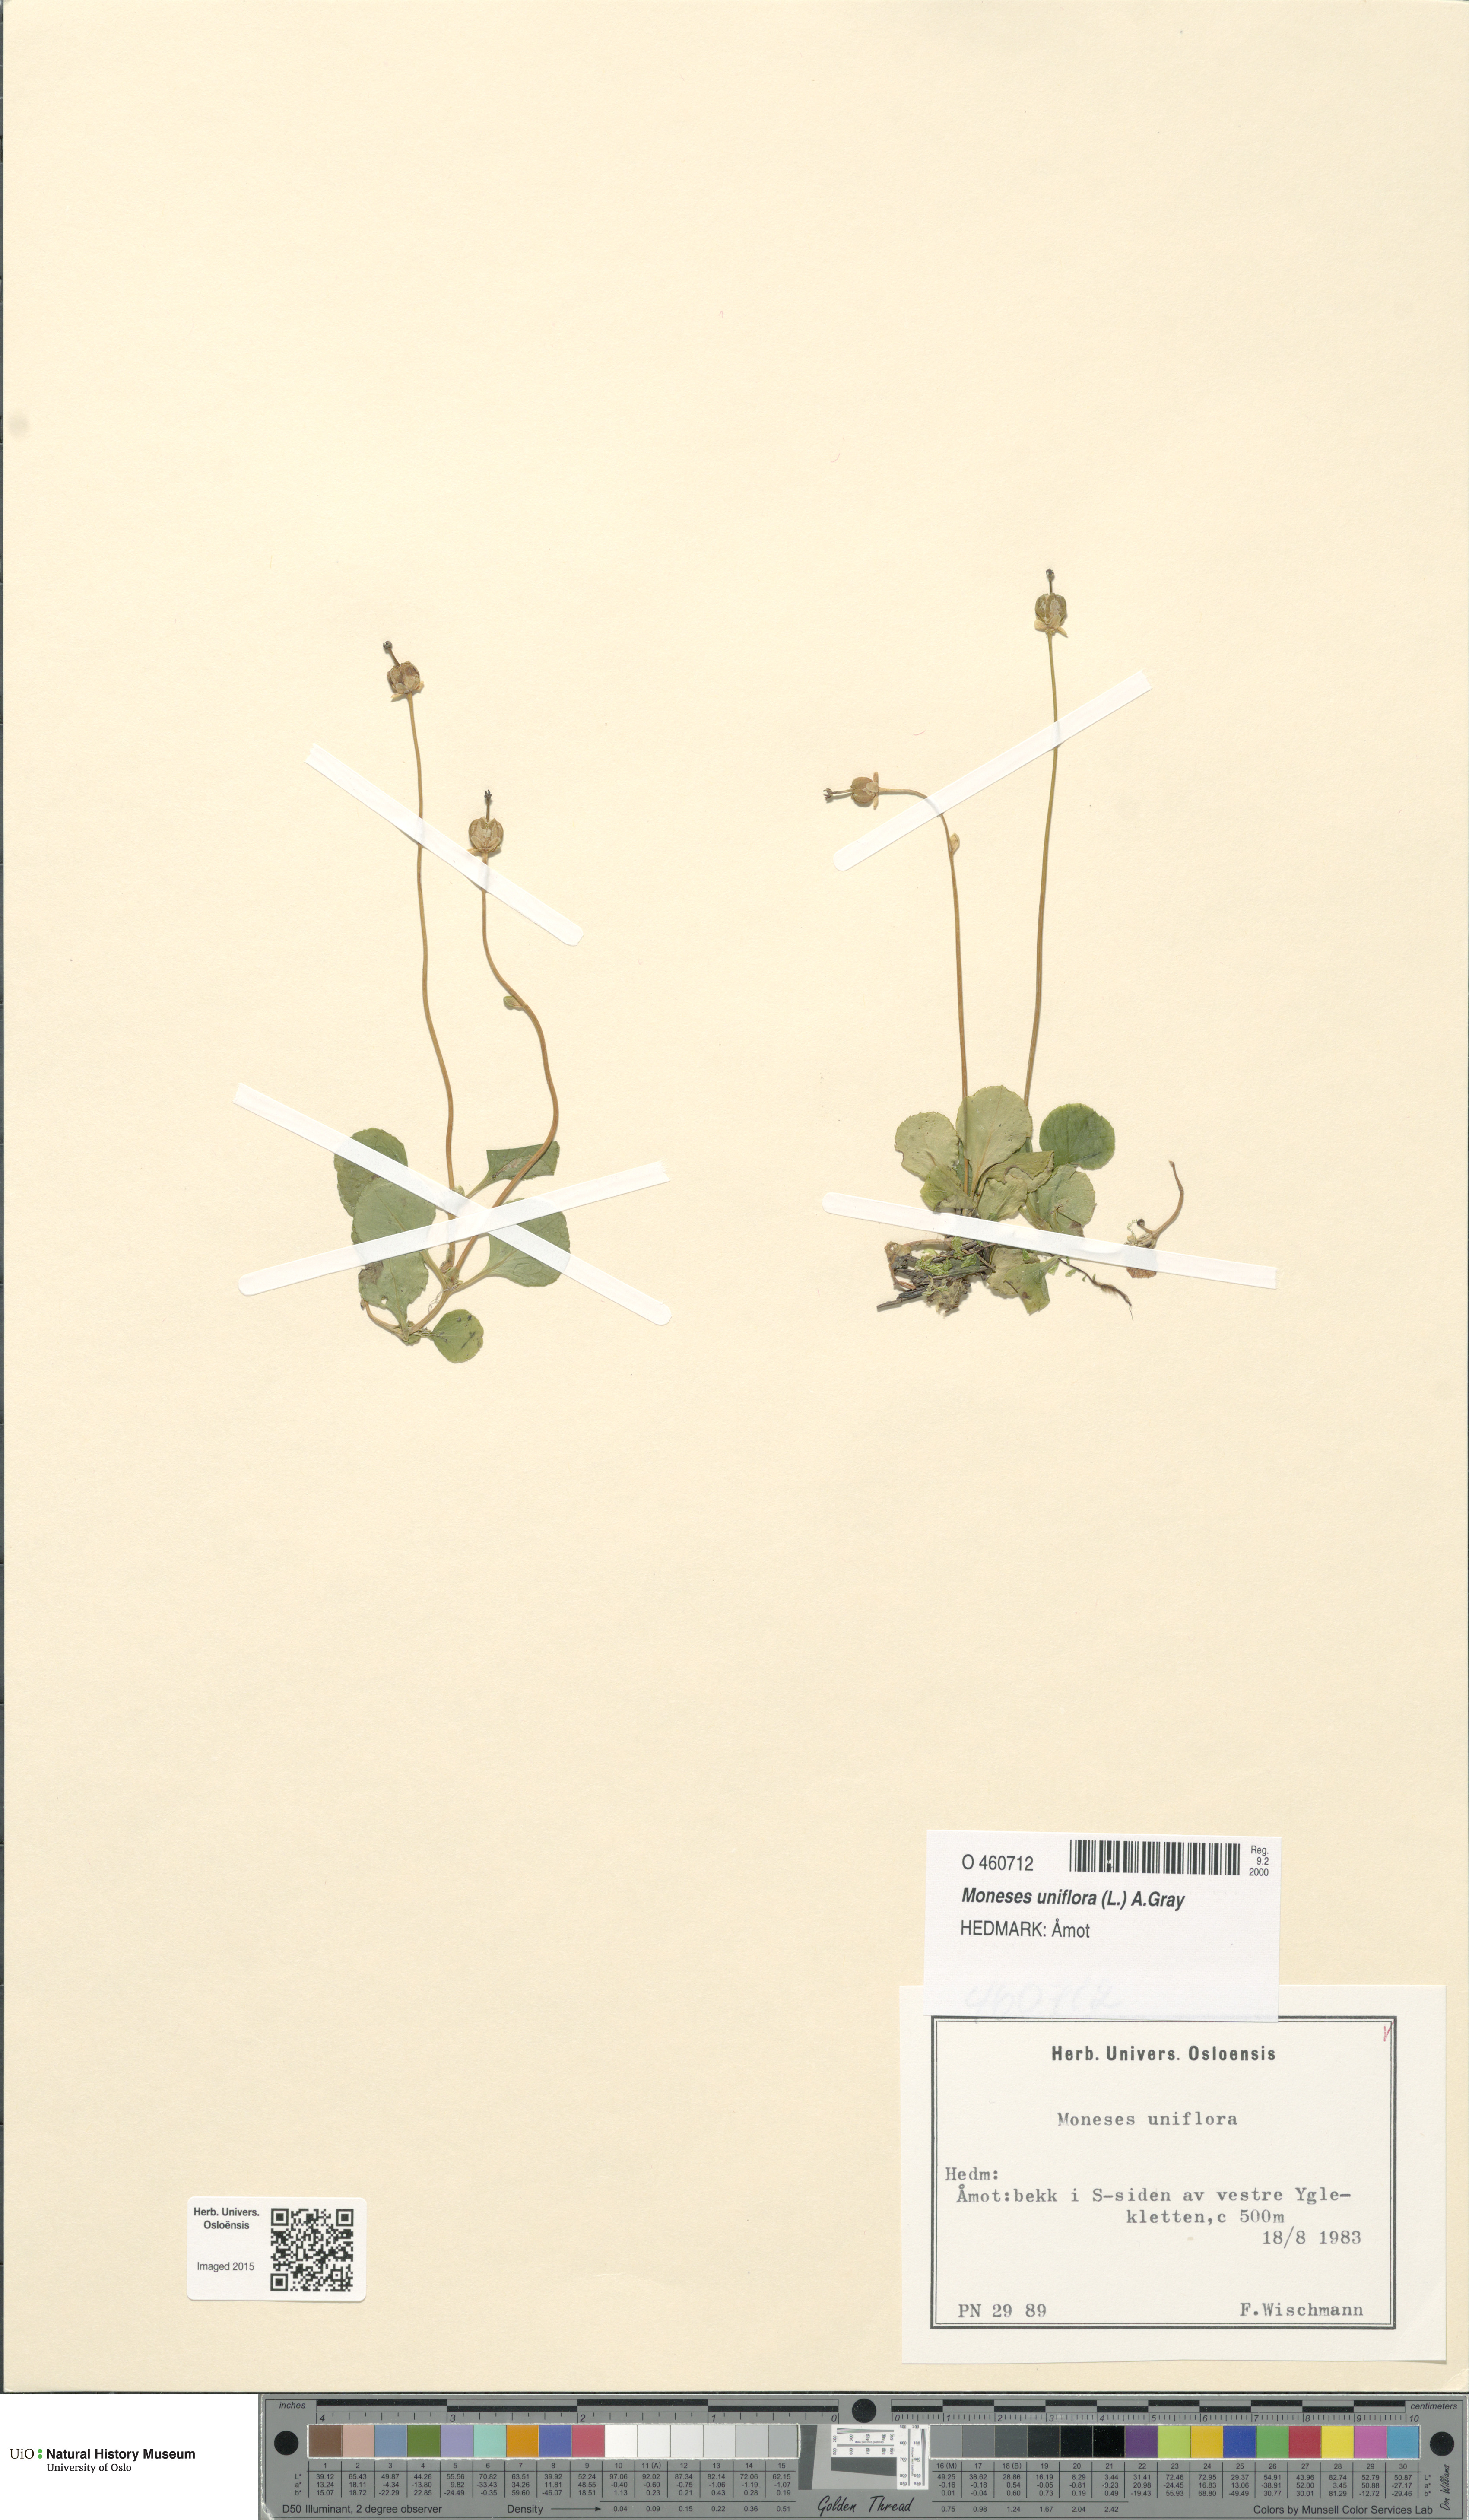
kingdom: Plantae
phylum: Tracheophyta
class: Magnoliopsida
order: Ericales
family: Ericaceae
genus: Moneses
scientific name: Moneses uniflora
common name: One-flowered wintergreen
